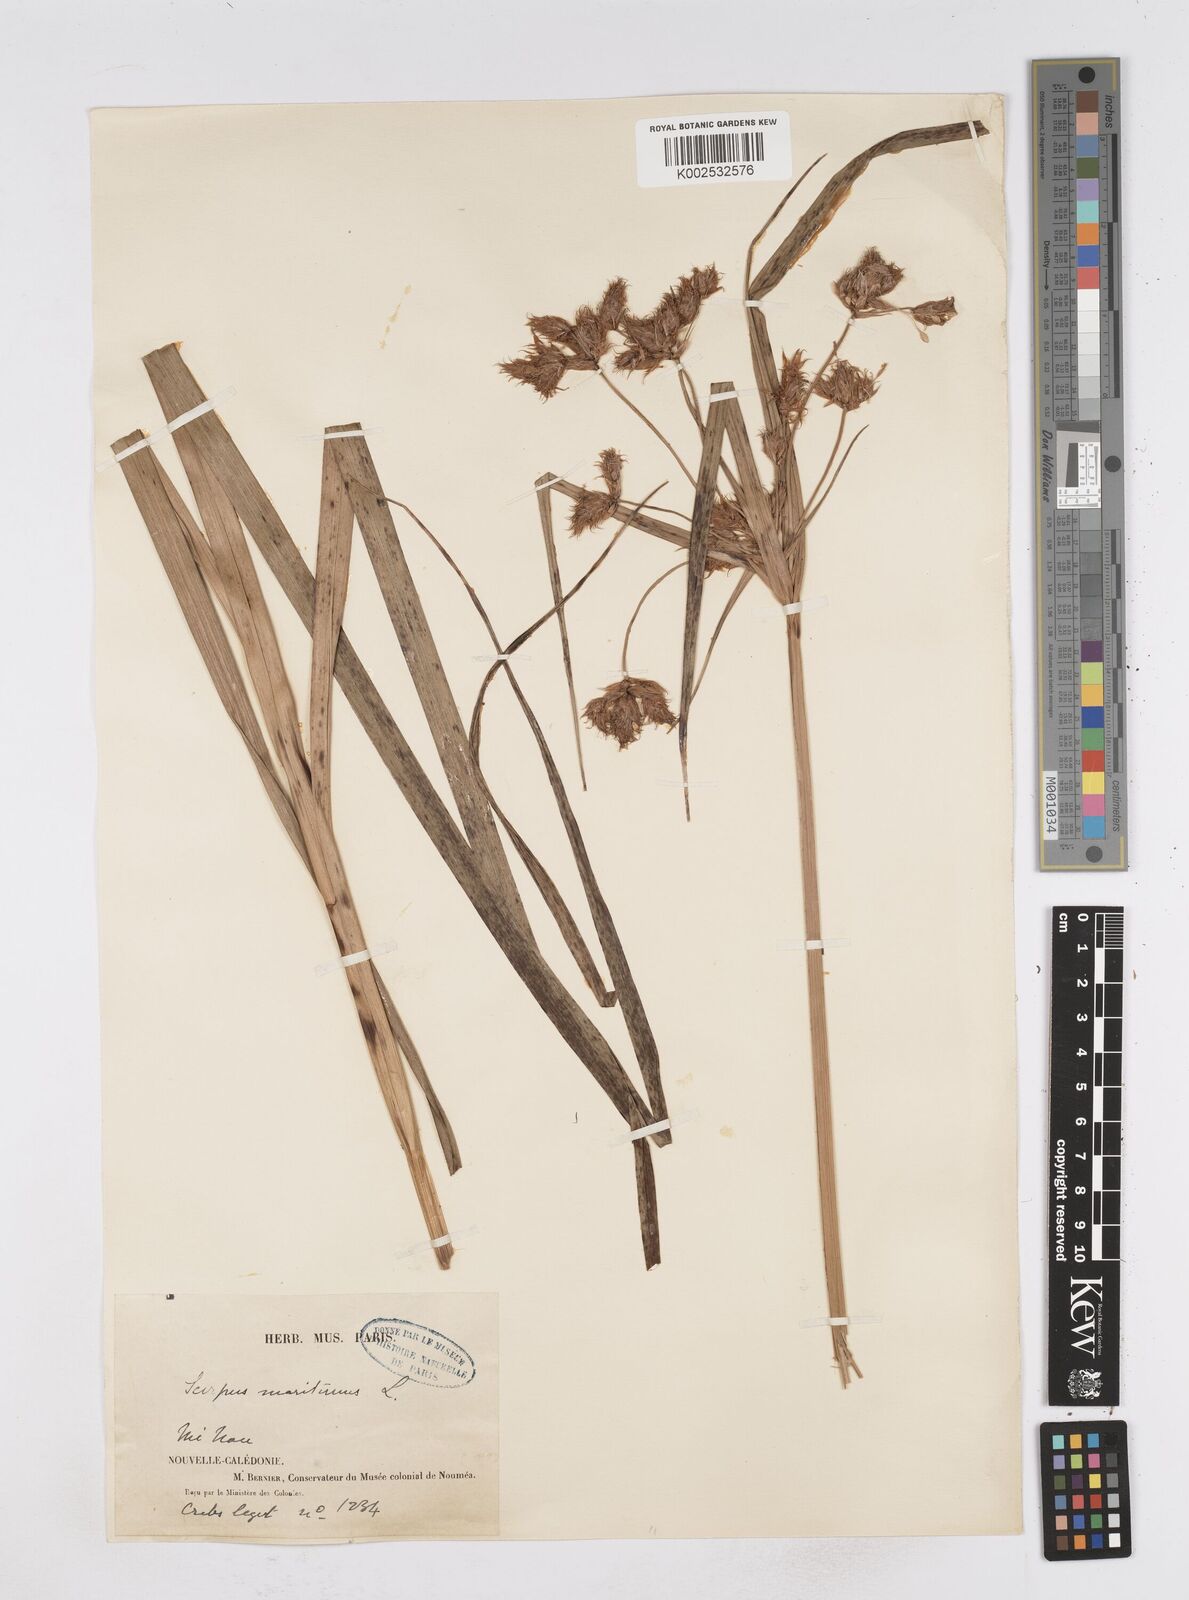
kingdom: Plantae
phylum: Tracheophyta
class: Liliopsida
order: Poales
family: Cyperaceae
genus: Bolboschoenus
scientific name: Bolboschoenus maritimus
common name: Sea club-rush
